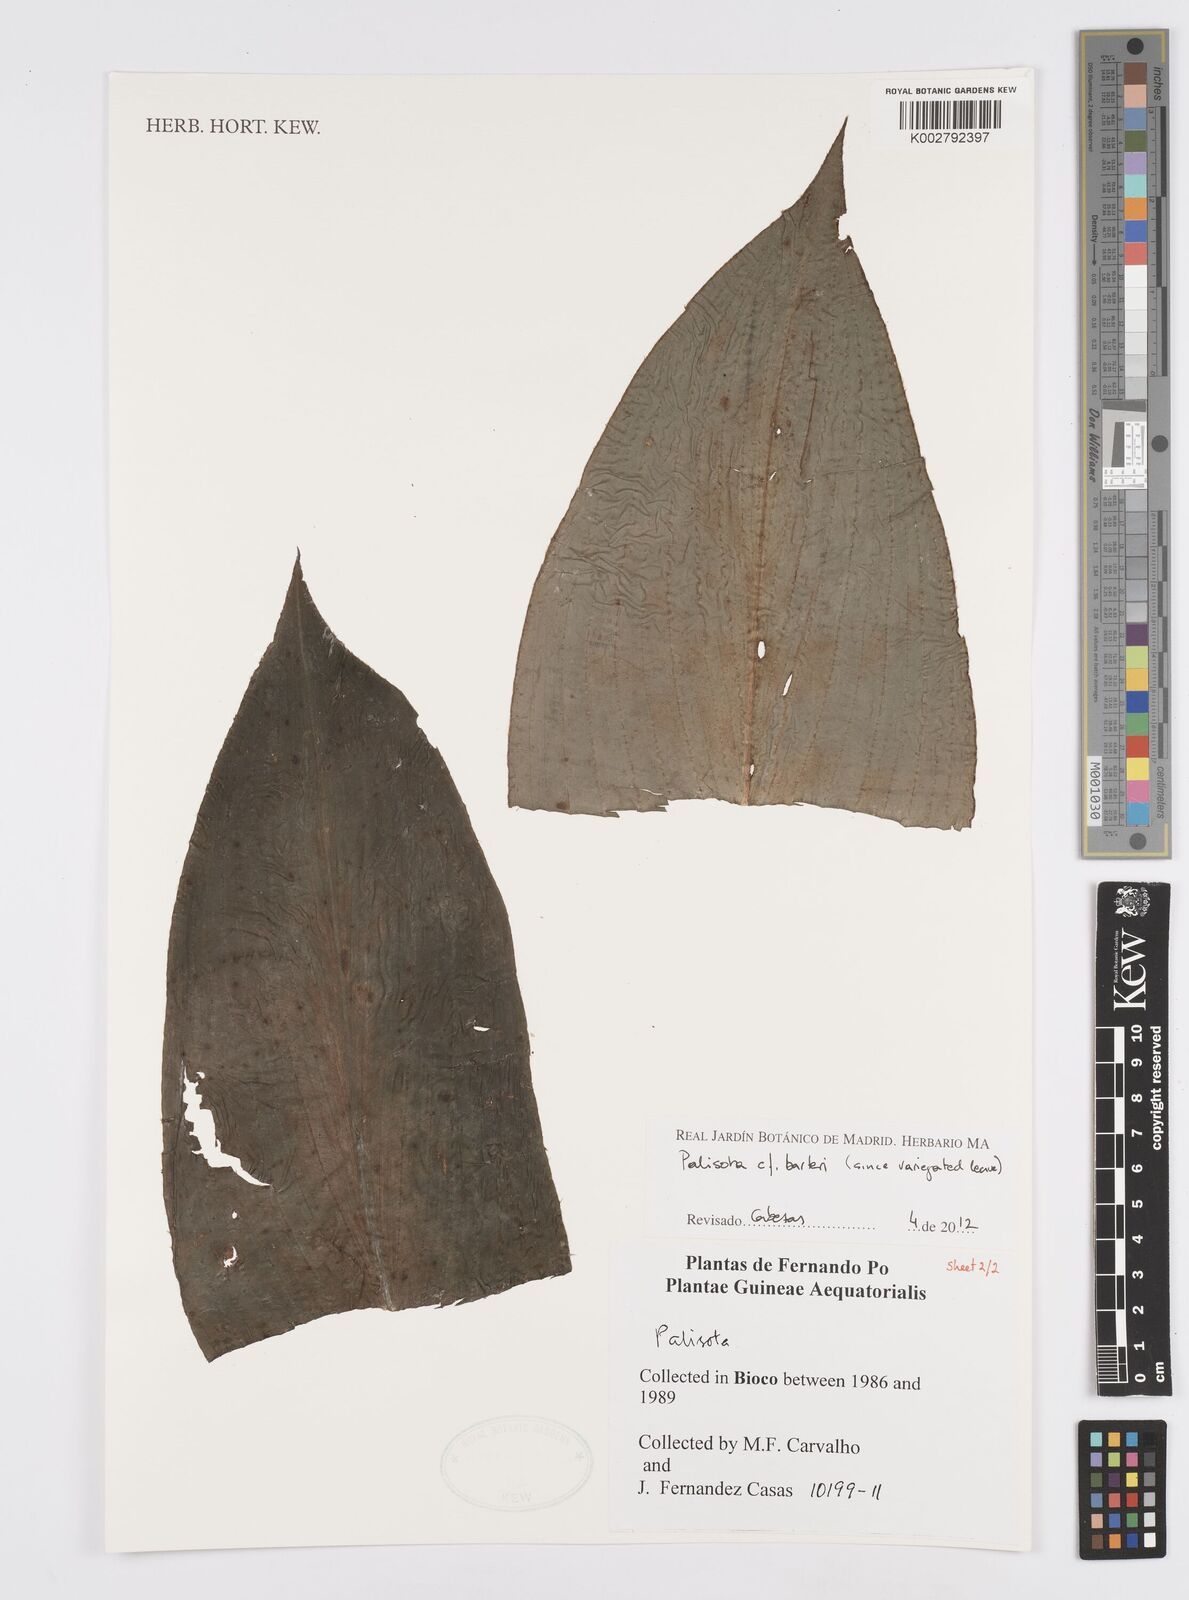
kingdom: Plantae
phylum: Tracheophyta
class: Liliopsida
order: Commelinales
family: Commelinaceae
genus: Palisota
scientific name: Palisota barteri
